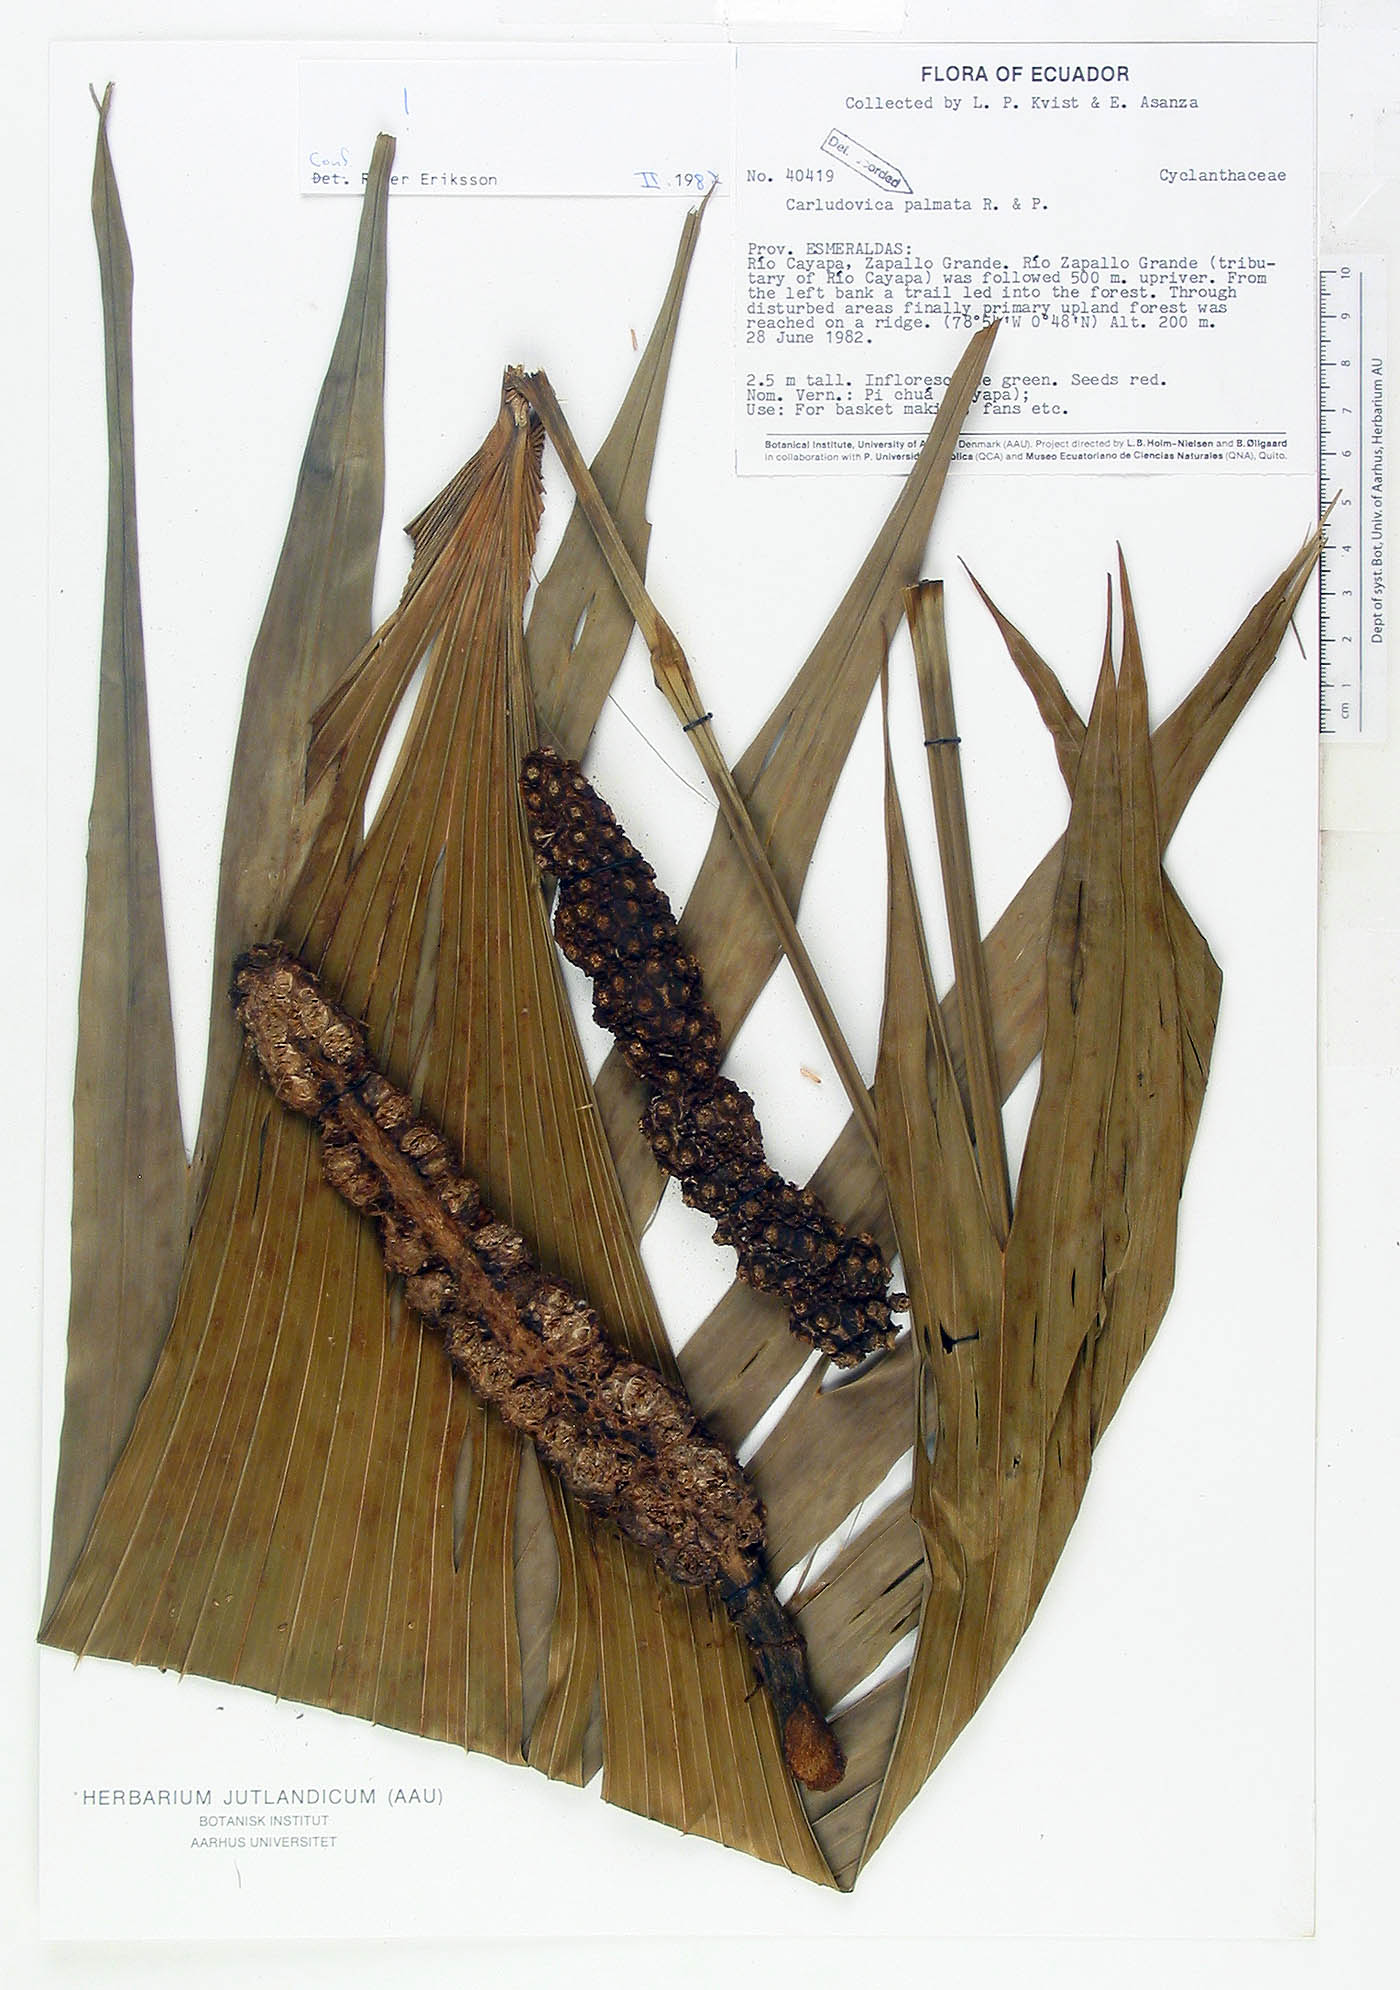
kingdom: Plantae
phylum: Tracheophyta
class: Liliopsida
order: Pandanales
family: Cyclanthaceae
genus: Carludovica
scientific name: Carludovica palmata
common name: Panama hat plant
